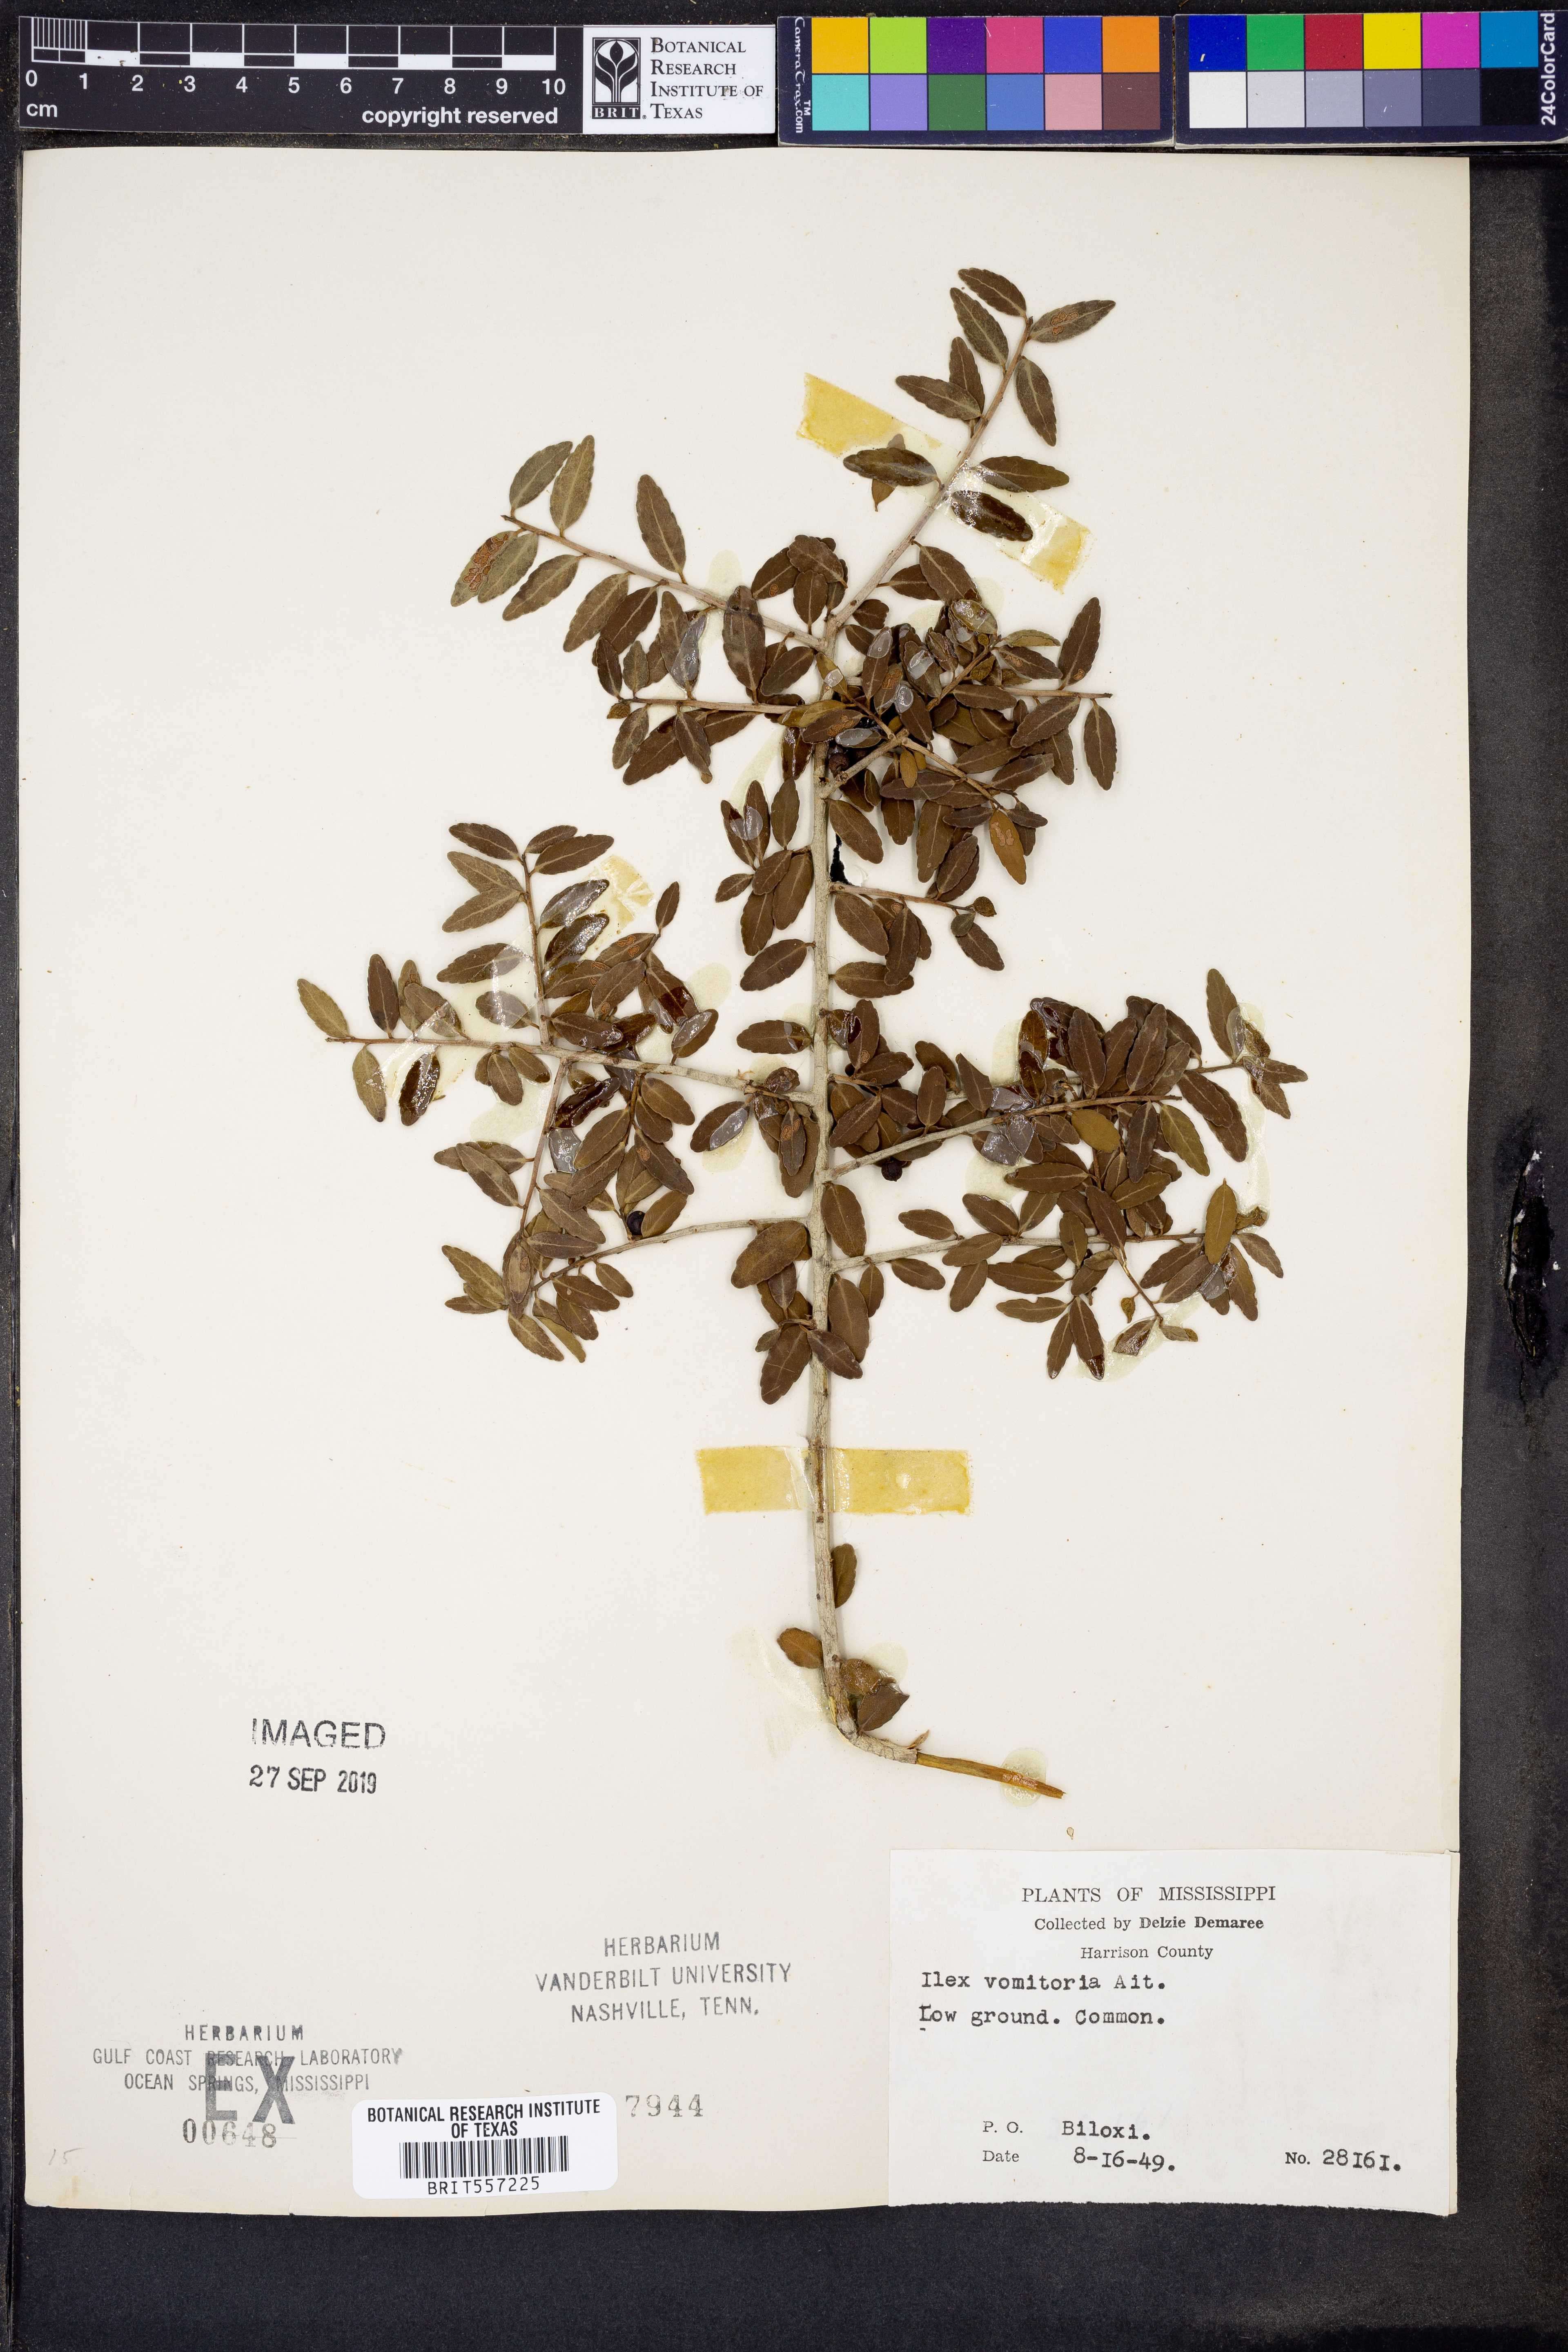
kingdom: Plantae
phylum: Tracheophyta
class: Magnoliopsida
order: Aquifoliales
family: Aquifoliaceae
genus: Ilex
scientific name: Ilex vomitoria
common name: Yaupon holly
